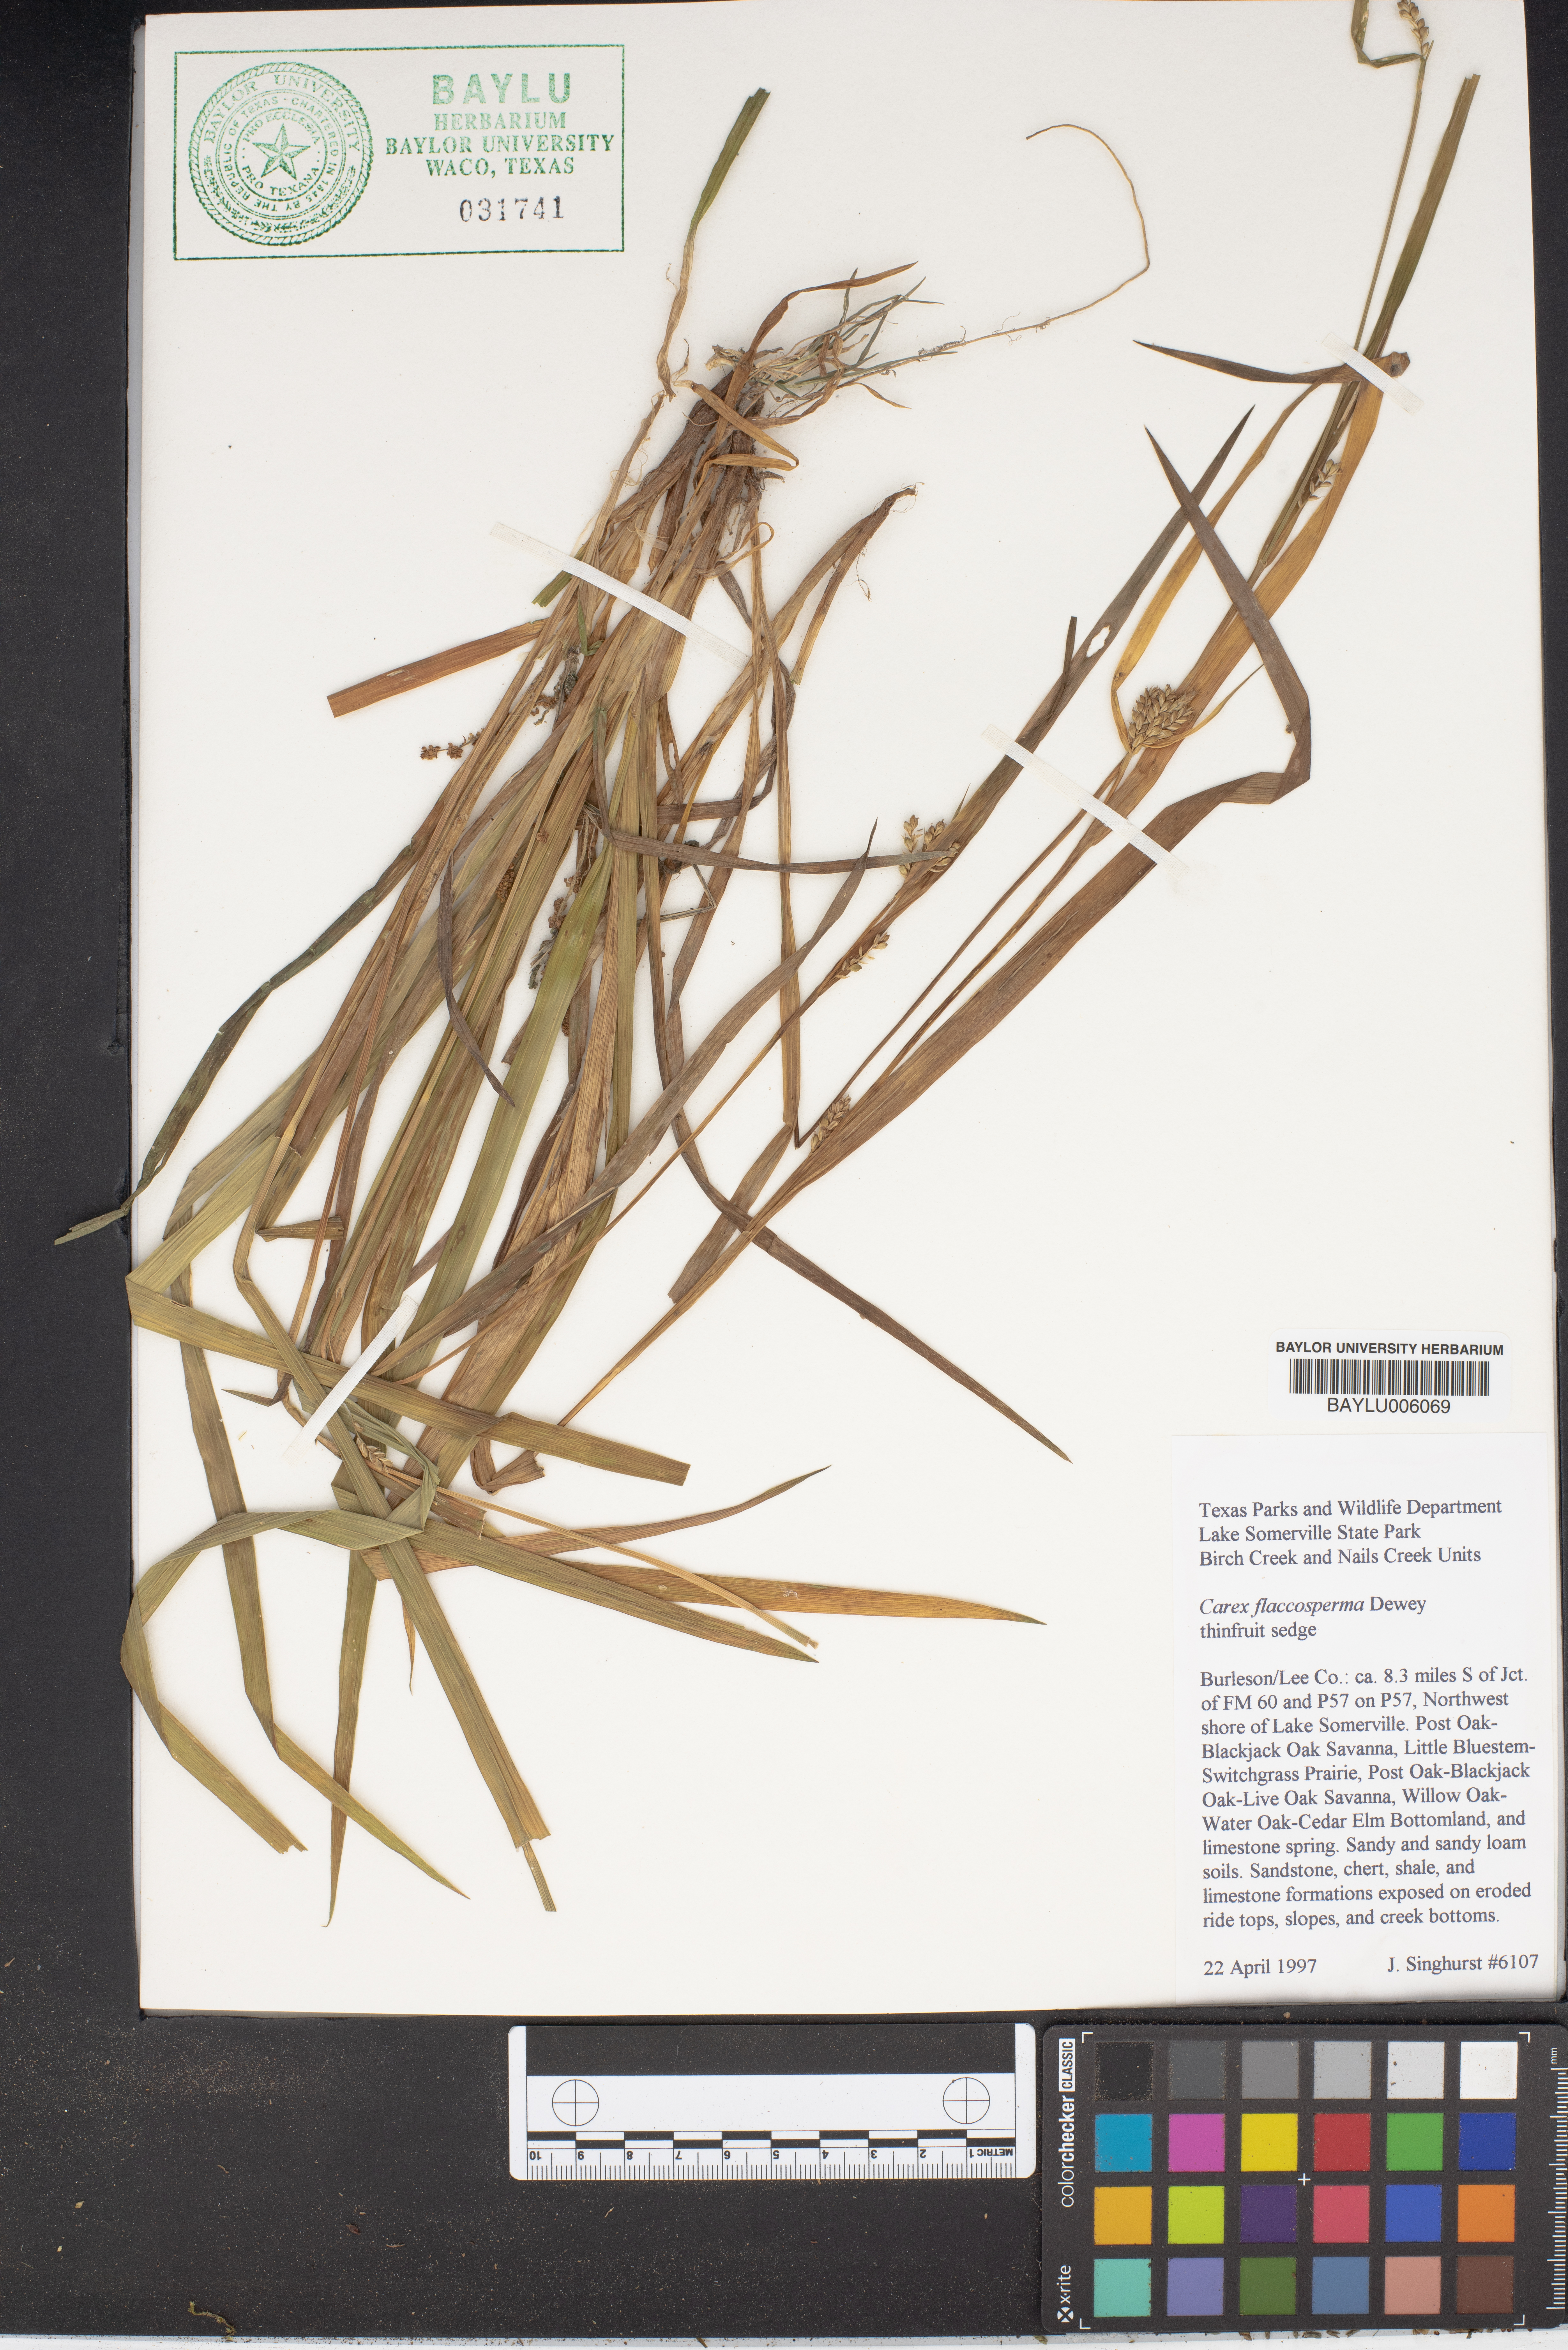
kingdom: Plantae
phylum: Tracheophyta
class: Liliopsida
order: Poales
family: Cyperaceae
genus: Carex
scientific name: Carex flaccosperma
